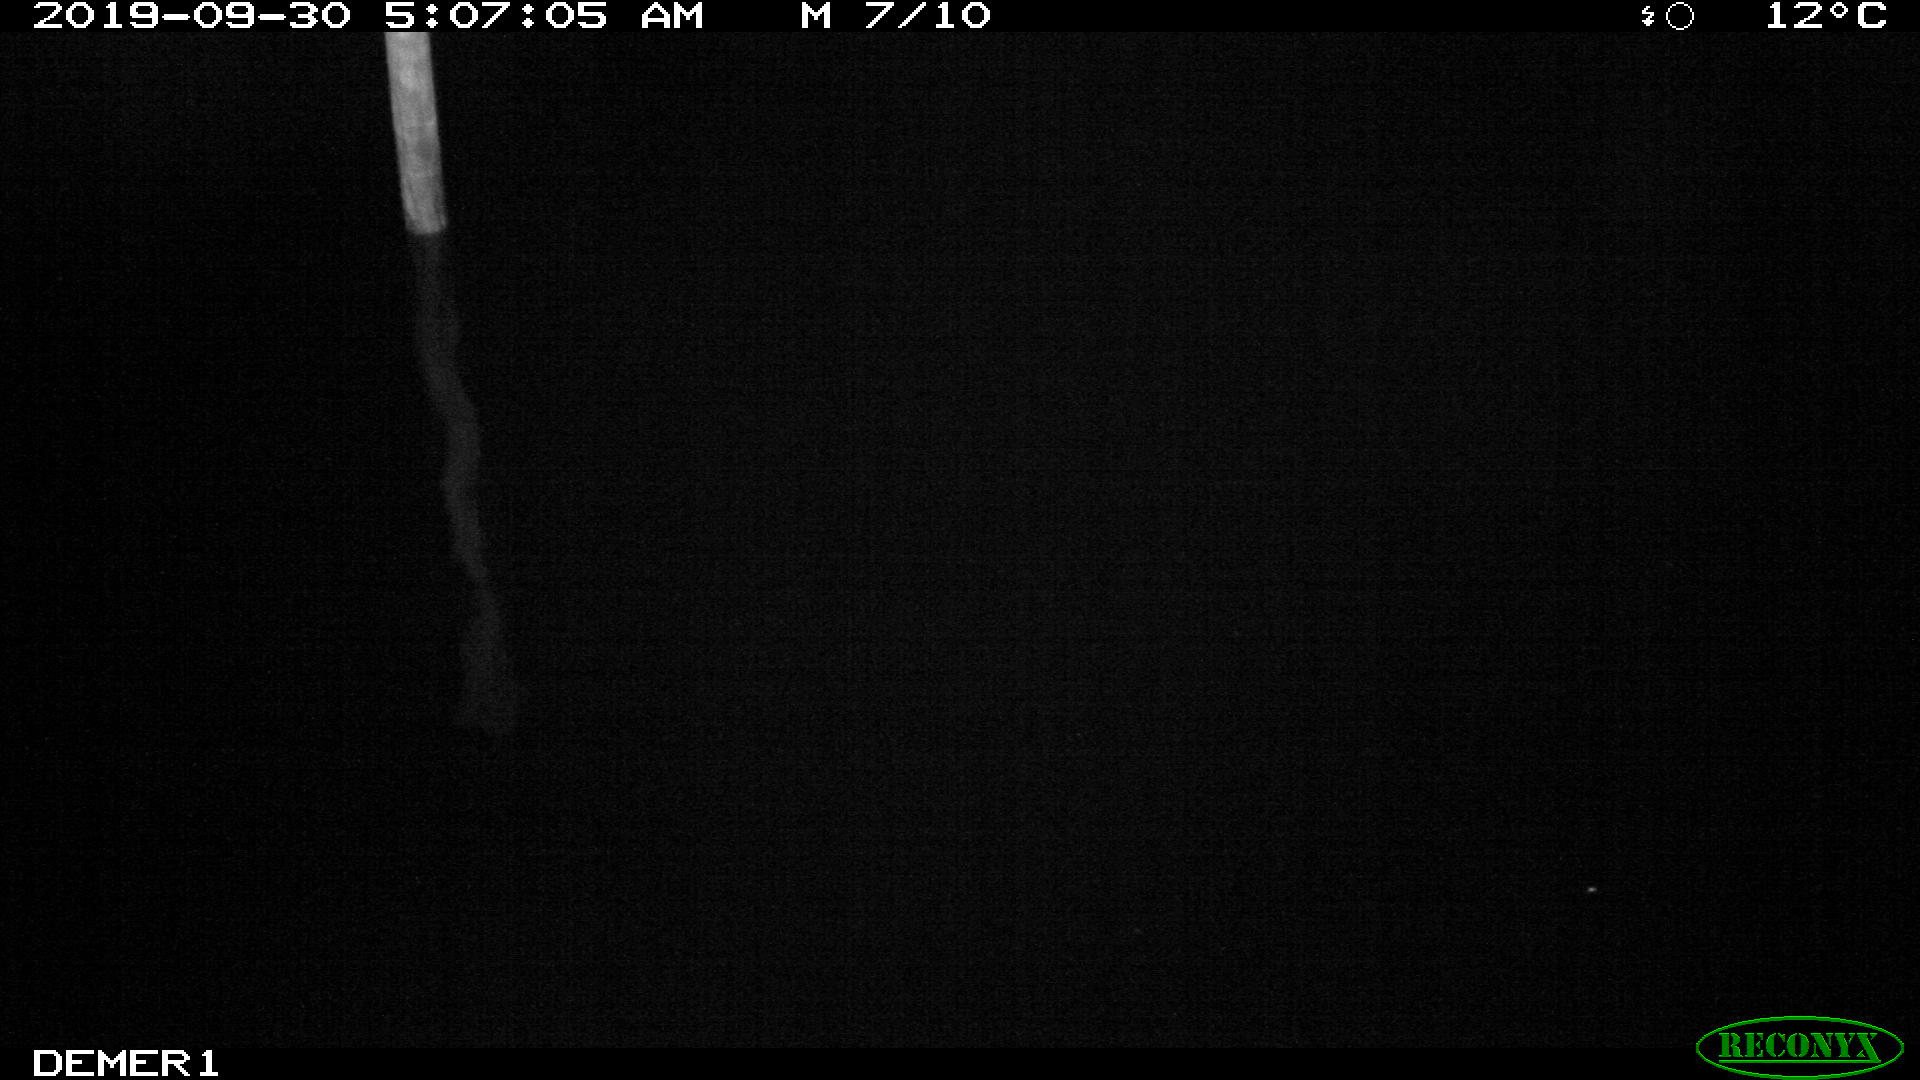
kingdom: Animalia
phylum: Chordata
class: Aves
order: Anseriformes
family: Anatidae
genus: Anas
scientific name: Anas platyrhynchos
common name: Mallard
